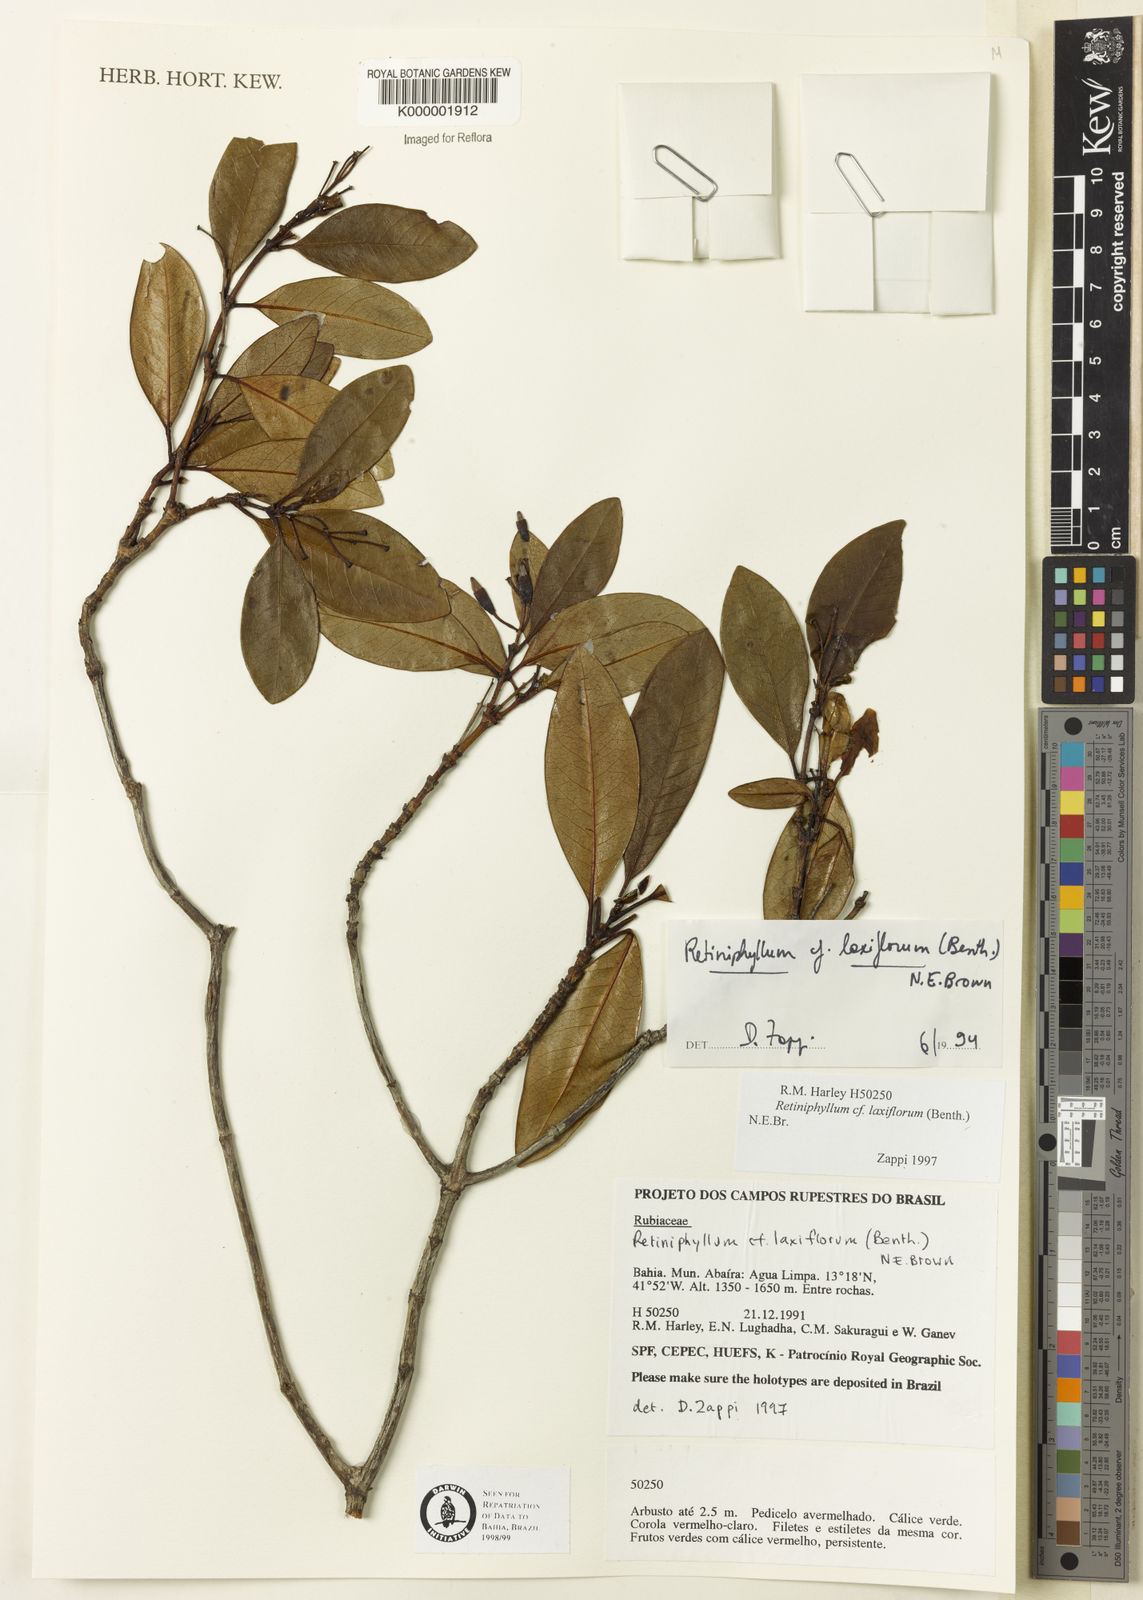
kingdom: Plantae
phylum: Tracheophyta
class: Magnoliopsida
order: Gentianales
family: Rubiaceae
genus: Retiniphyllum
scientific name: Retiniphyllum laxiflorum
